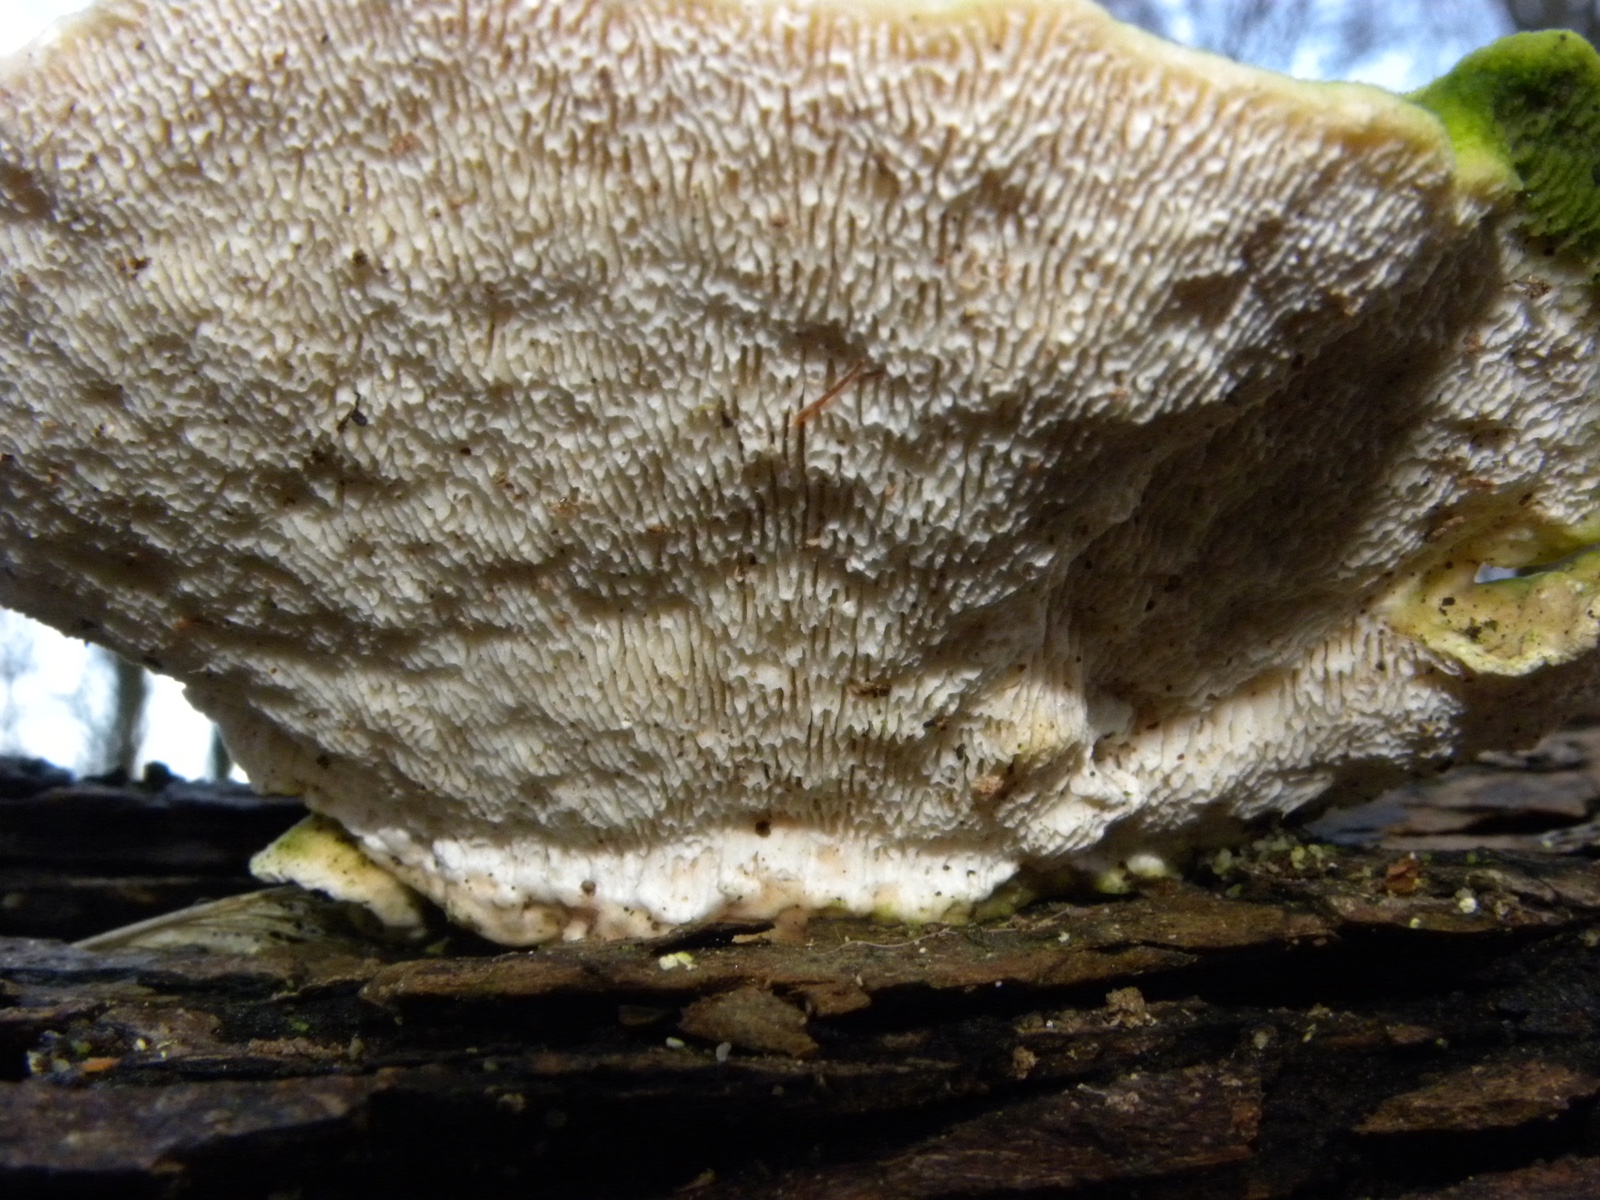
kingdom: Fungi
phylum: Basidiomycota
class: Agaricomycetes
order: Polyporales
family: Polyporaceae
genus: Trametes
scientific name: Trametes gibbosa
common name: puklet læderporesvamp
